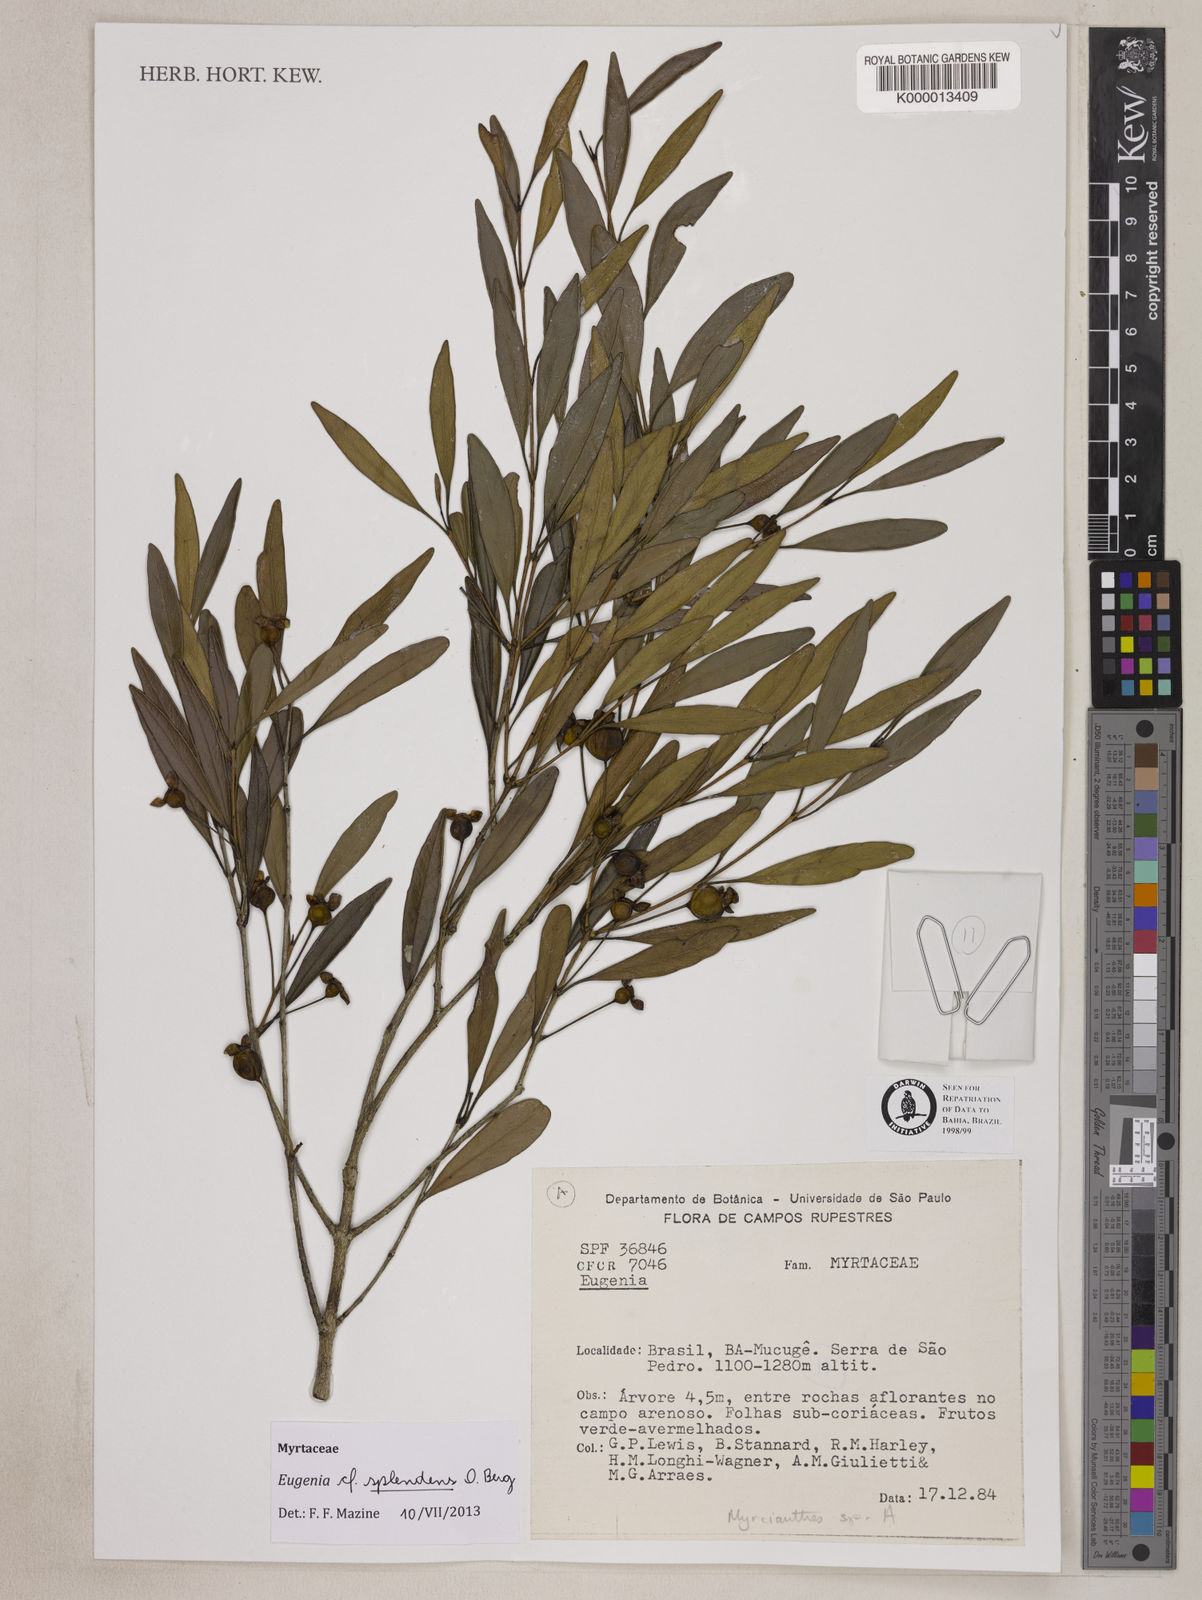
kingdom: Plantae
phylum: Tracheophyta
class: Magnoliopsida
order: Myrtales
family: Myrtaceae
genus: Myrcianthes
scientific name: Myrcianthes
